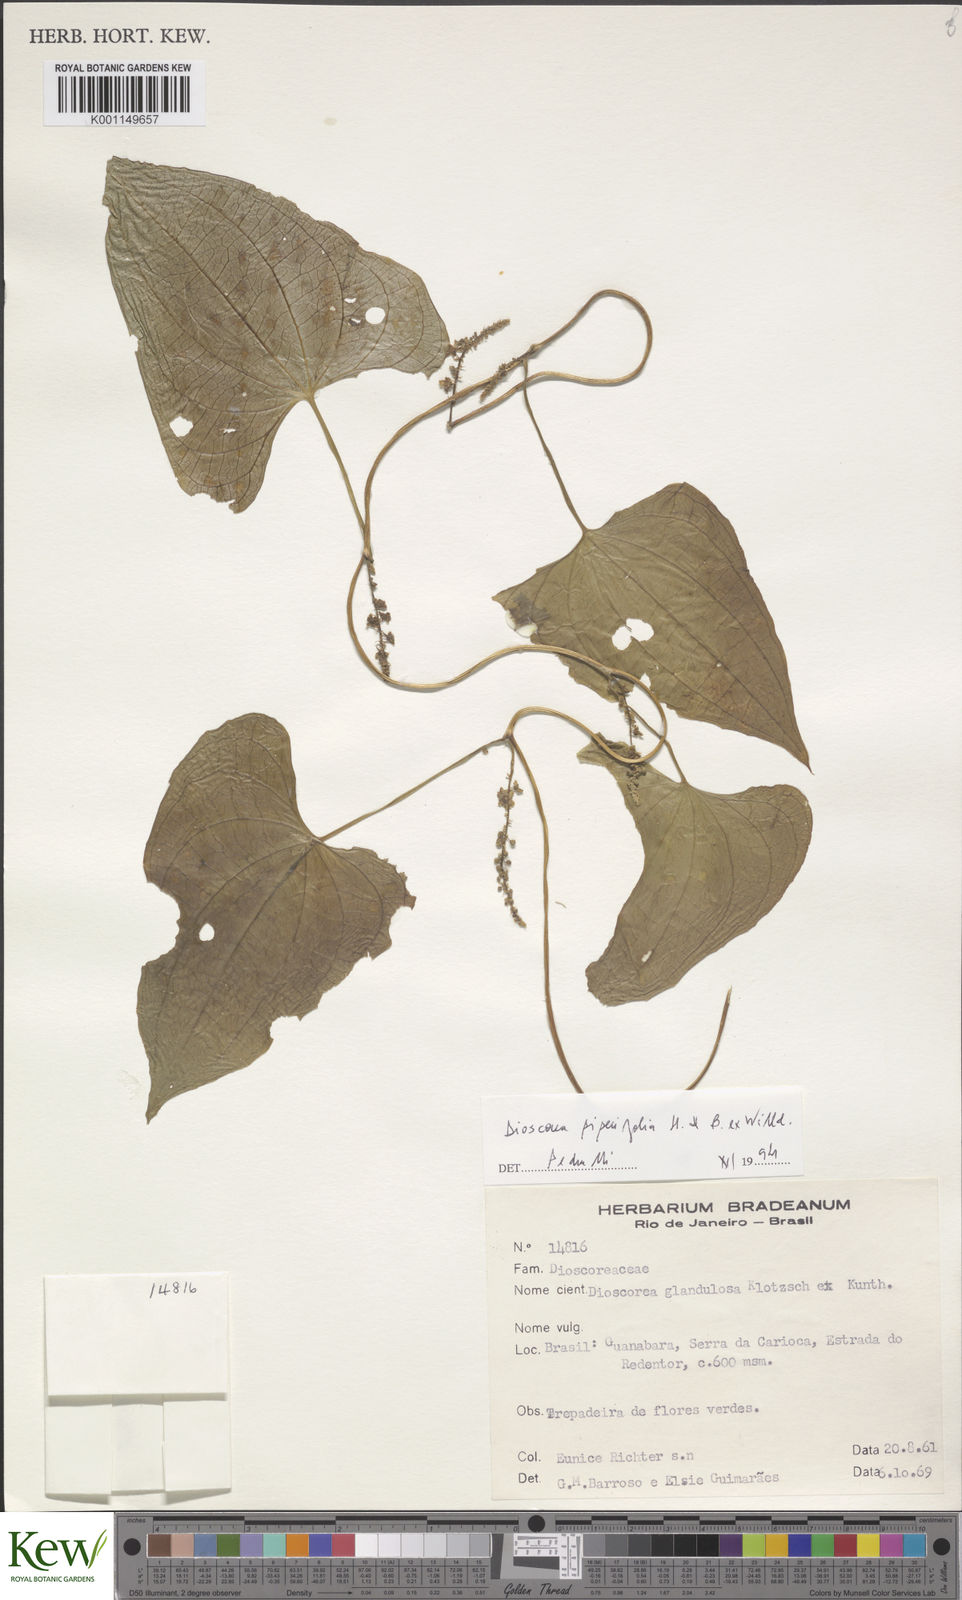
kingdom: Plantae
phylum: Tracheophyta
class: Liliopsida
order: Dioscoreales
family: Dioscoreaceae
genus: Dioscorea
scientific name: Dioscorea glandulosa
